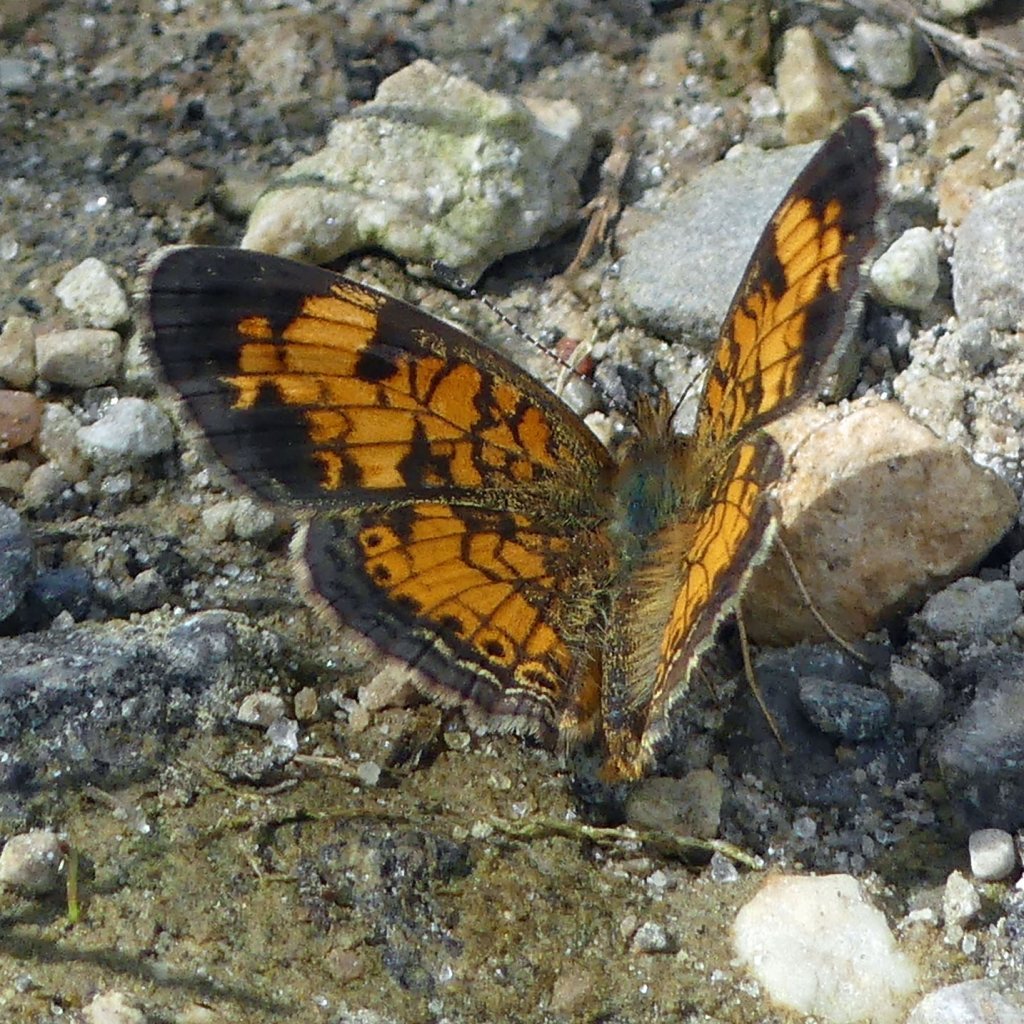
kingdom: Animalia
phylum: Arthropoda
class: Insecta
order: Lepidoptera
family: Nymphalidae
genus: Phyciodes
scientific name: Phyciodes tharos
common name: Pearl Crescent
